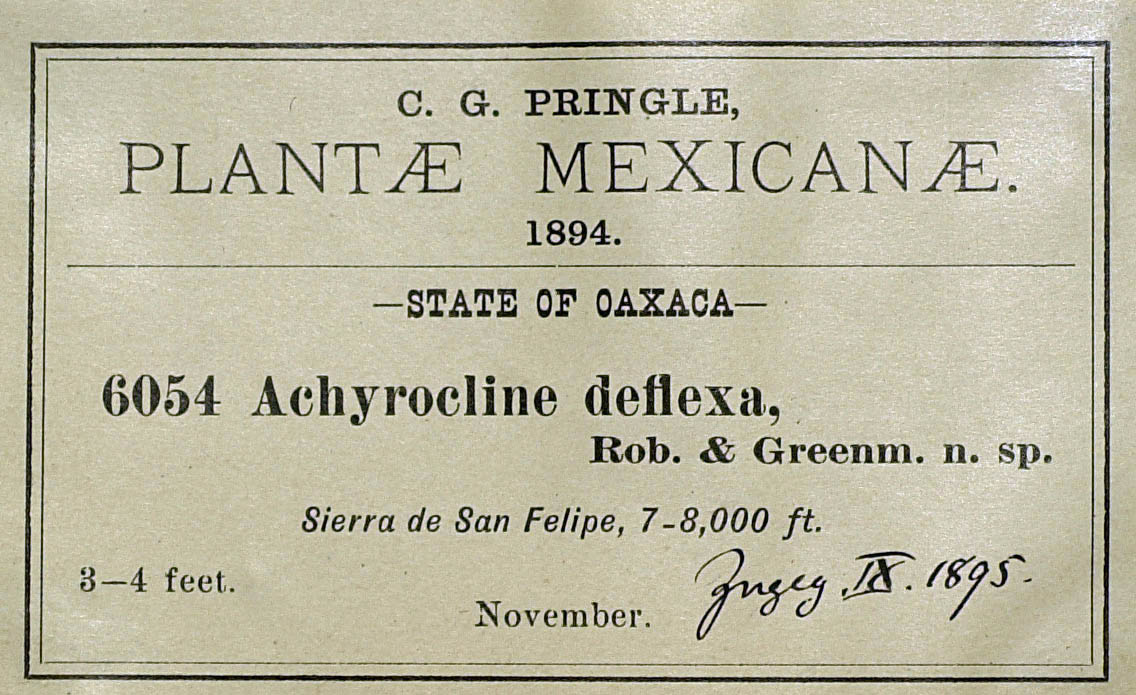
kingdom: Plantae
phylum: Tracheophyta
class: Magnoliopsida
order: Asterales
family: Asteraceae
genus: Achyrocline
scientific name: Achyrocline deflexa
